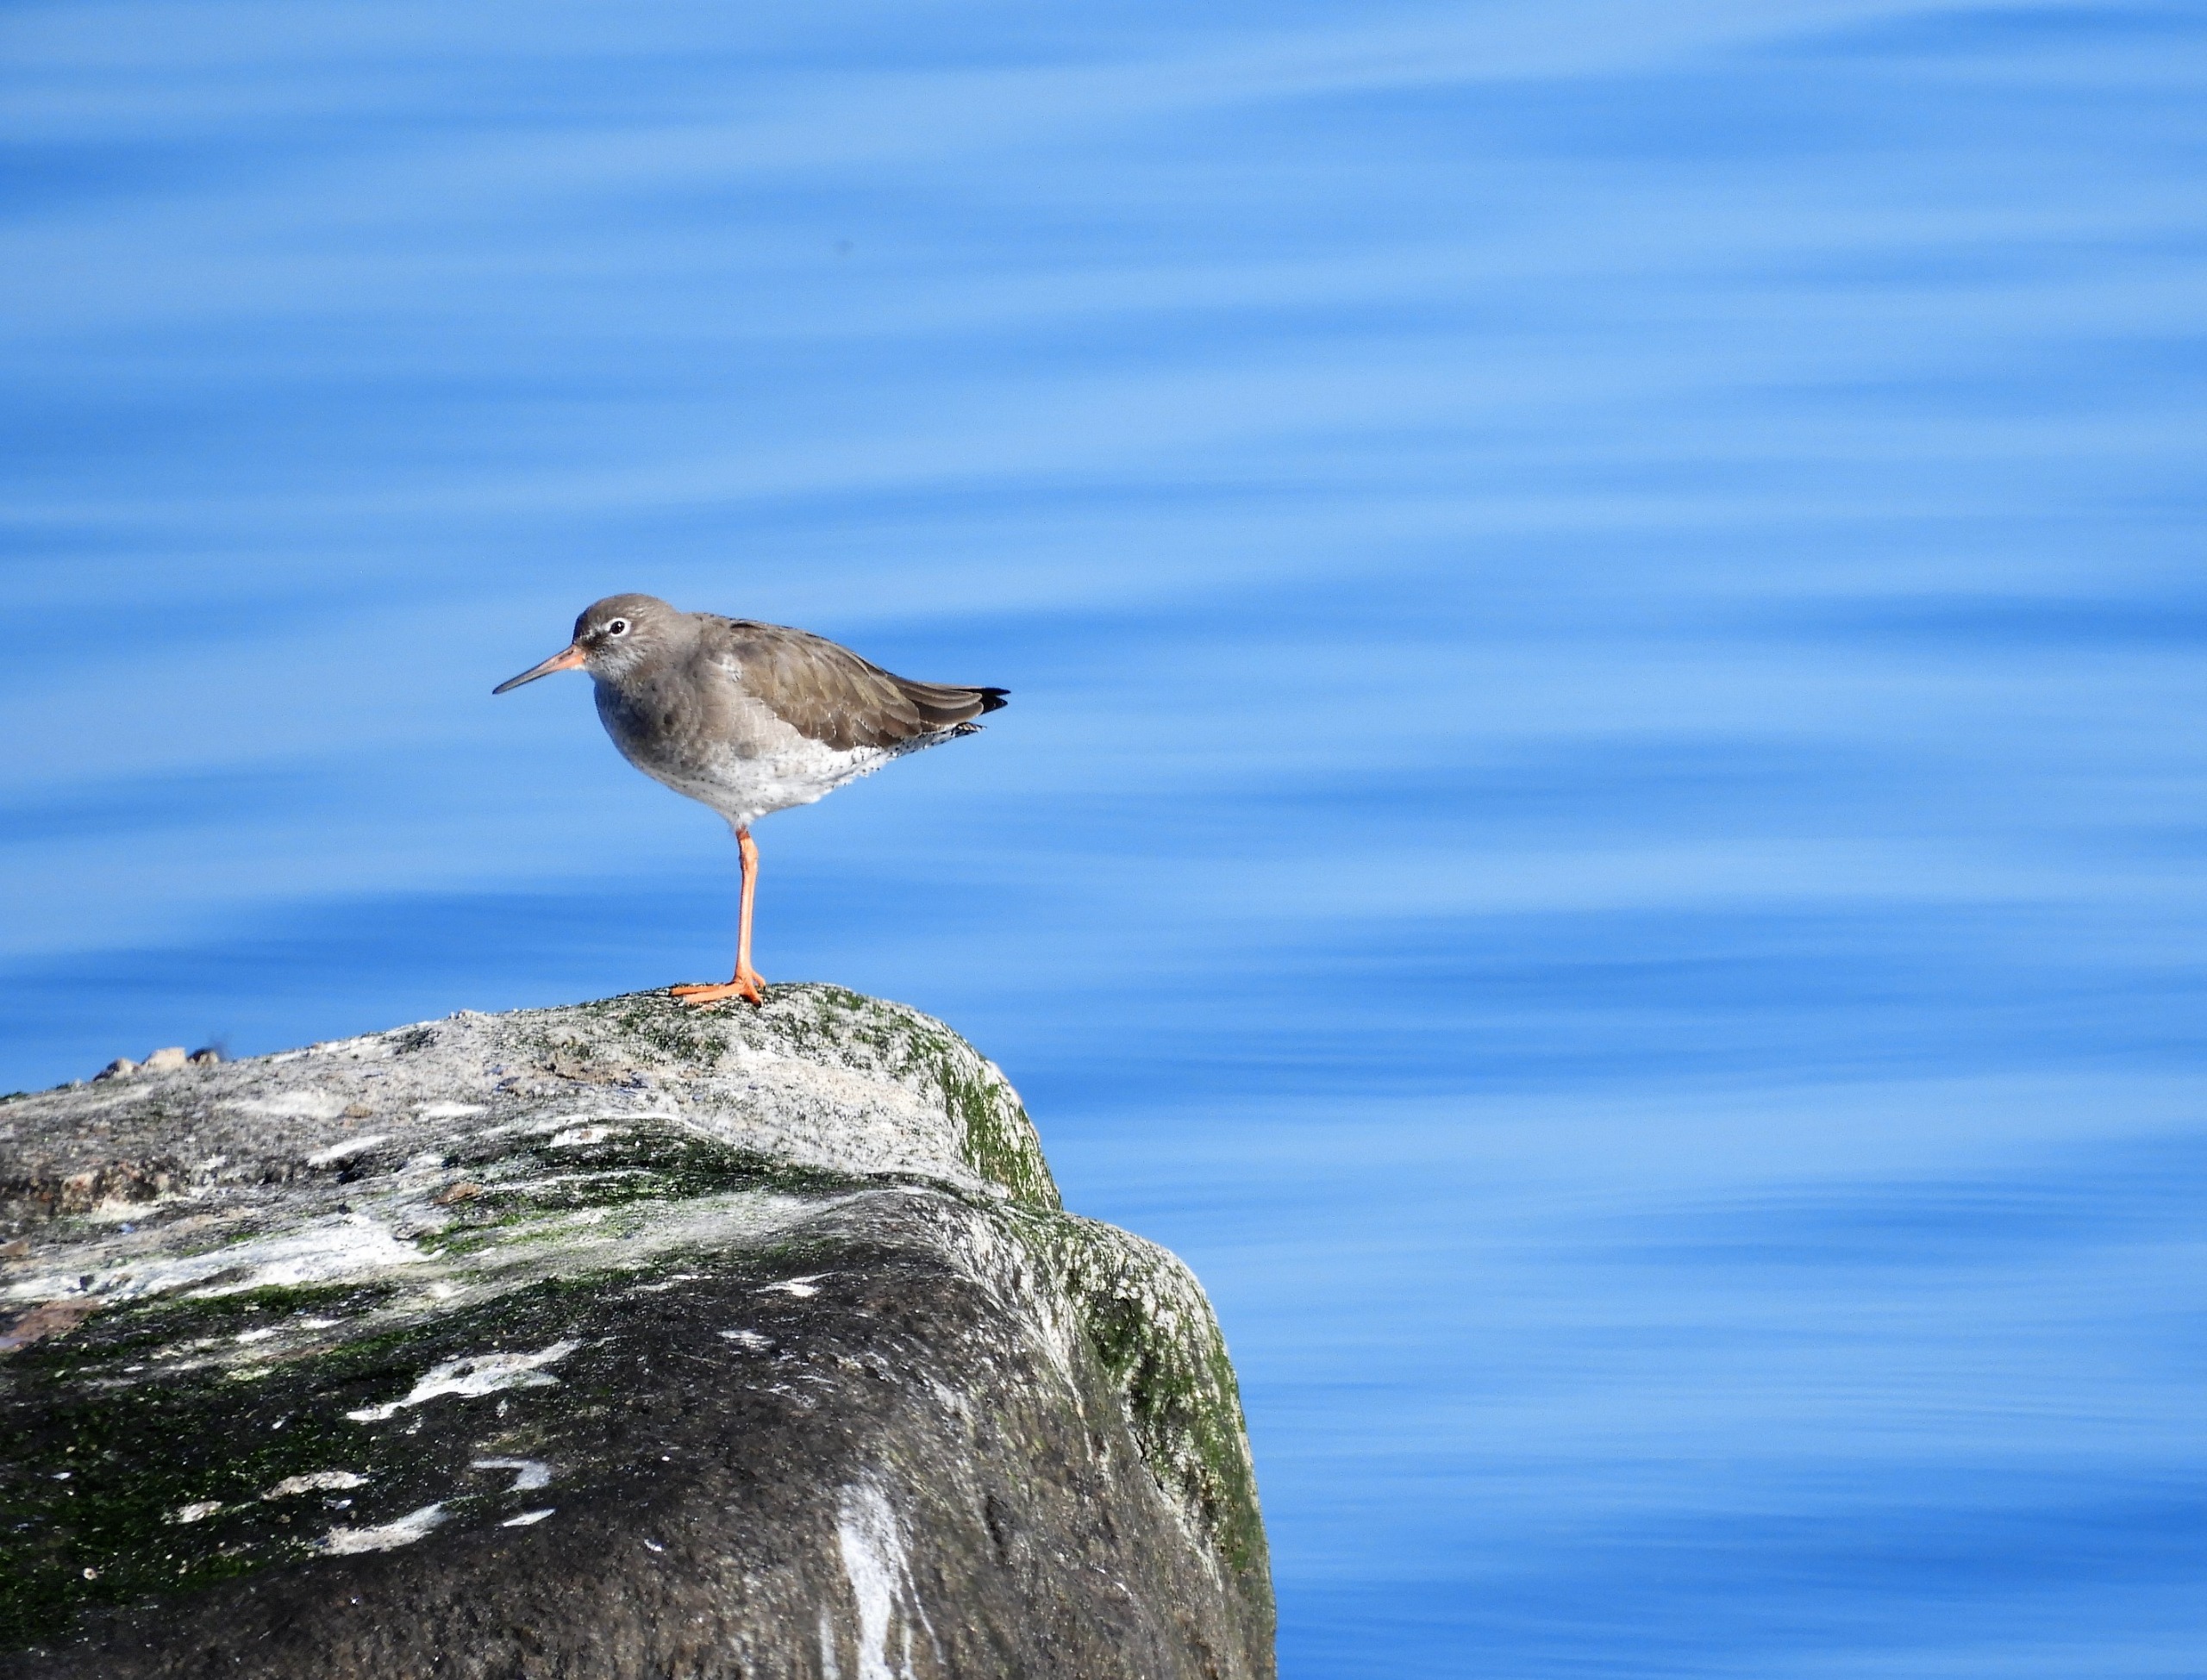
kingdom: Animalia
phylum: Chordata
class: Aves
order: Charadriiformes
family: Scolopacidae
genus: Tringa
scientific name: Tringa totanus
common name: Rødben
